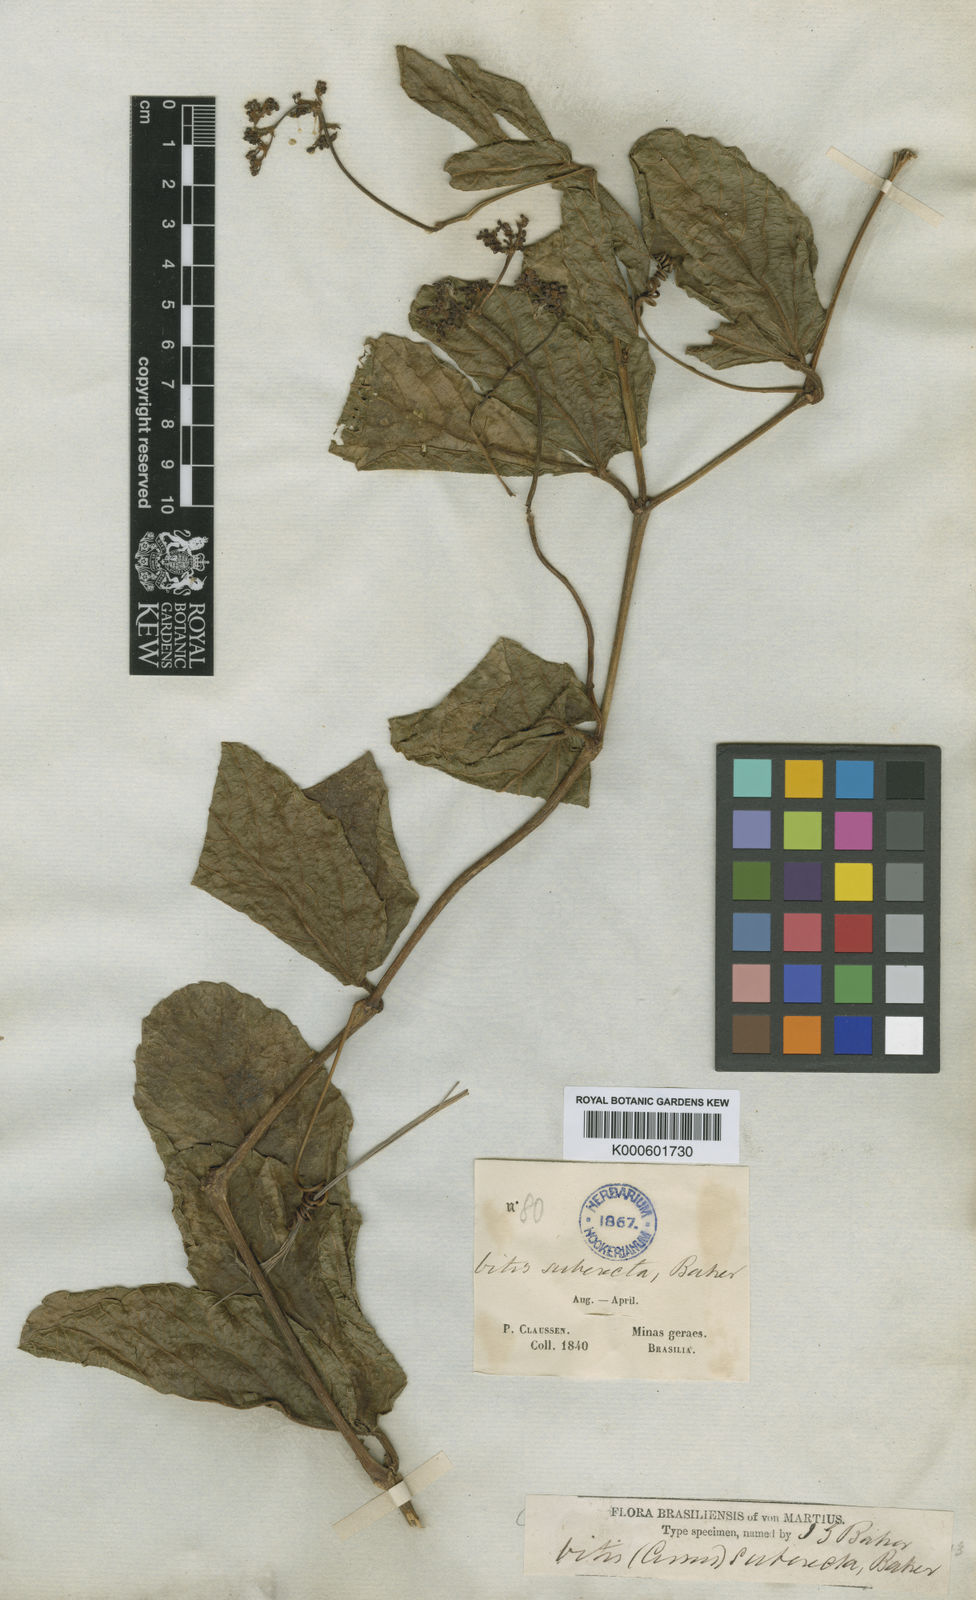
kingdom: Plantae
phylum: Tracheophyta
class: Magnoliopsida
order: Vitales
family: Vitaceae
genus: Cissus
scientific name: Cissus inundata
